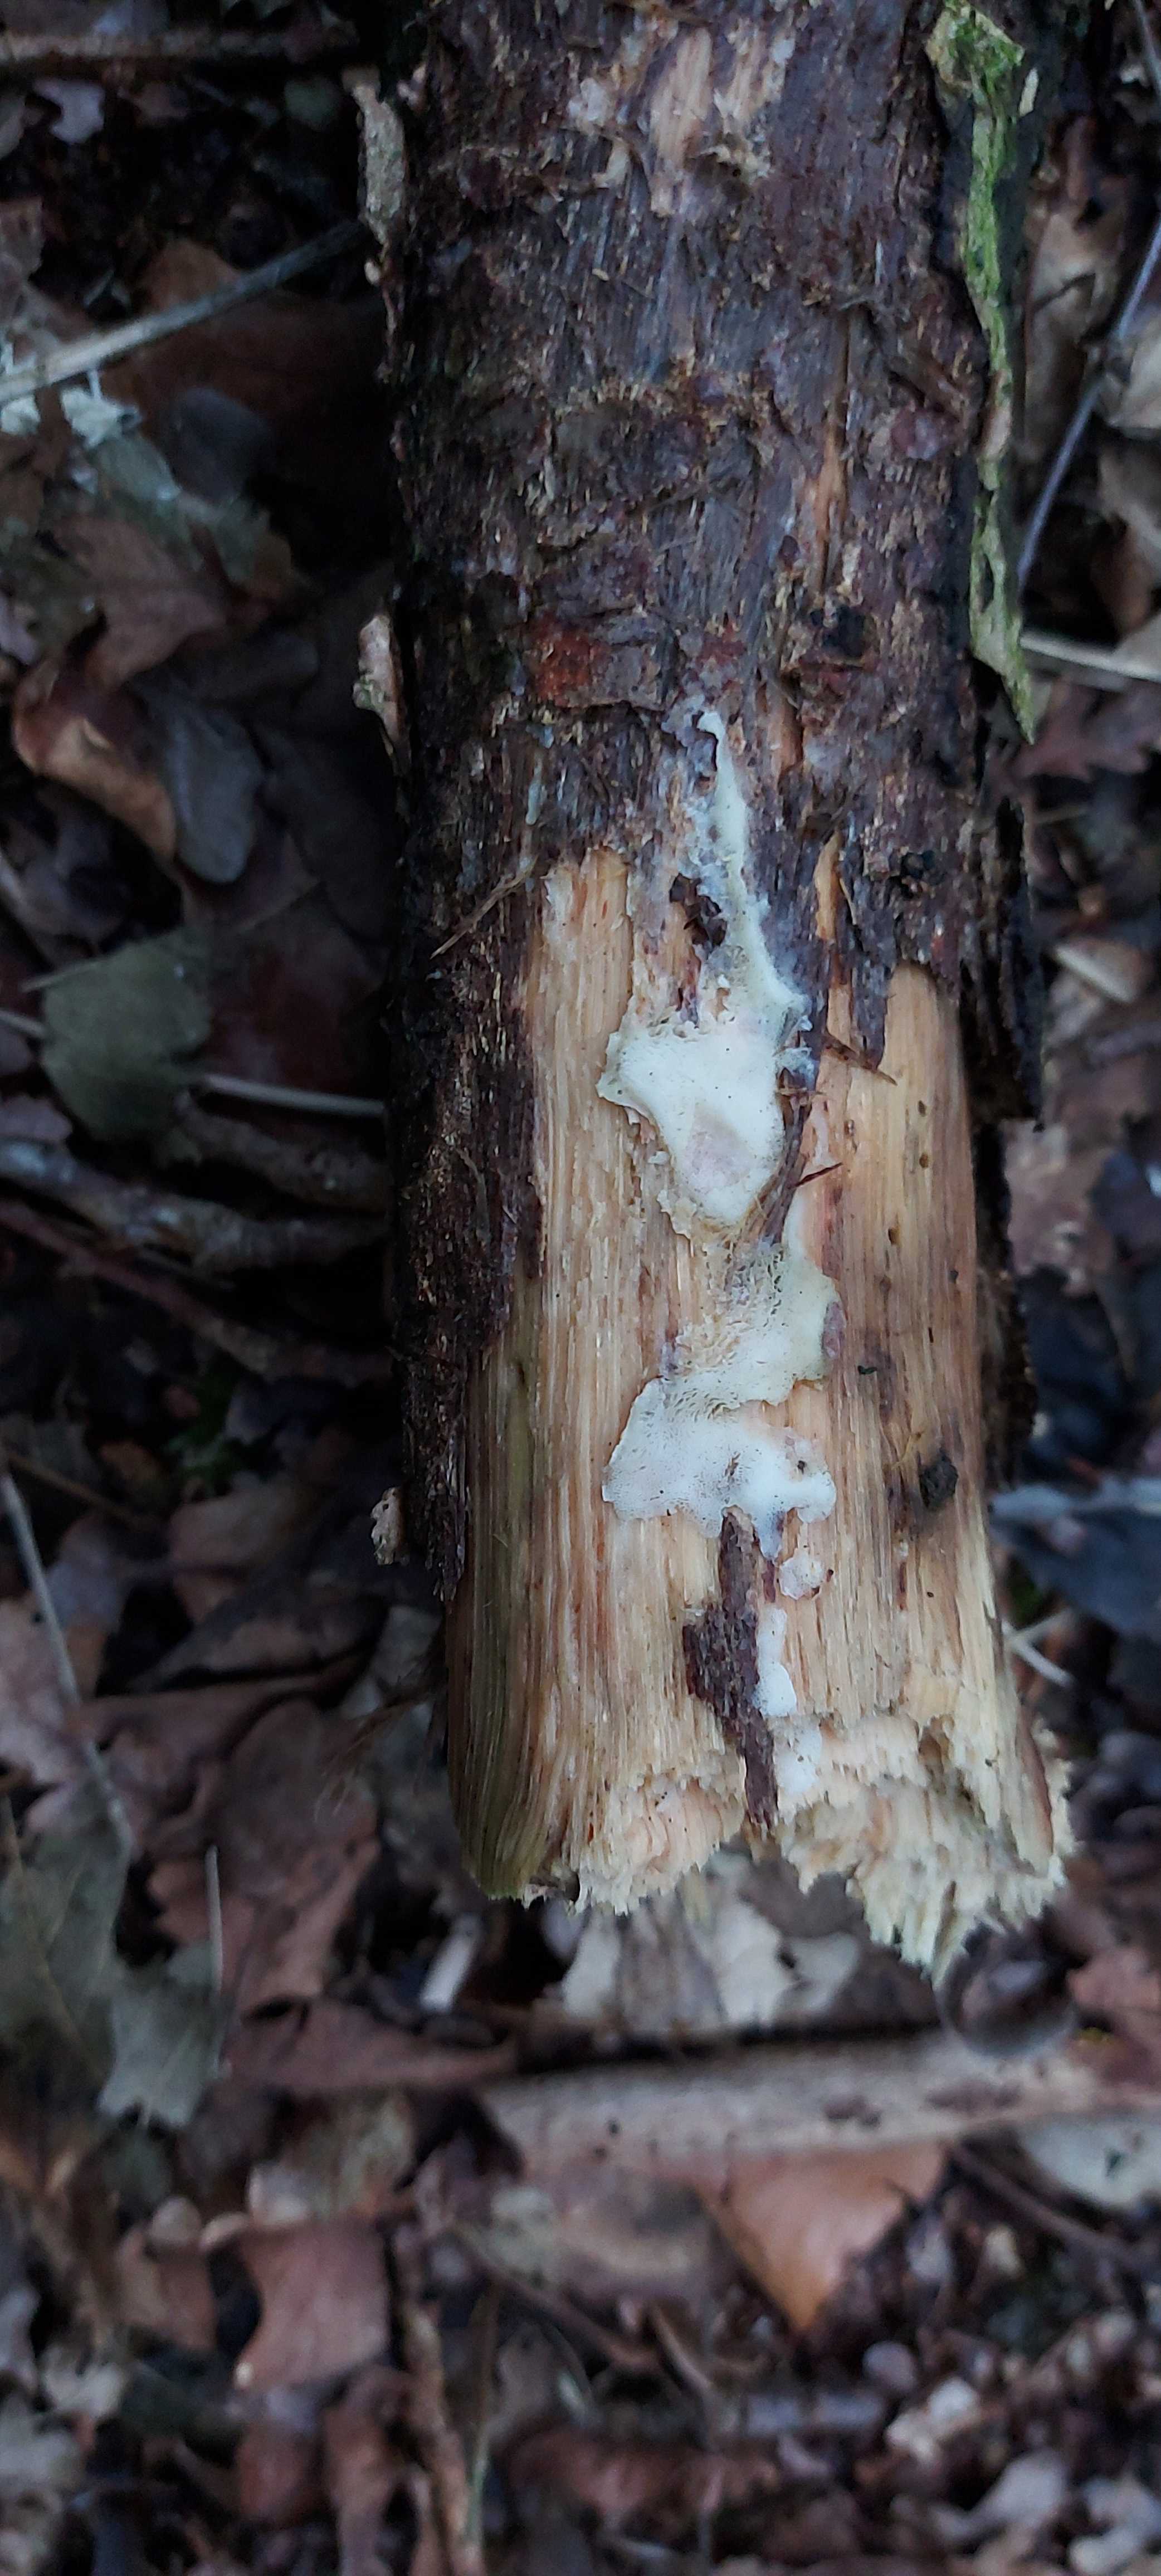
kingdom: Fungi
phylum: Basidiomycota
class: Agaricomycetes
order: Polyporales
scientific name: Polyporales
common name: poresvampordenen
